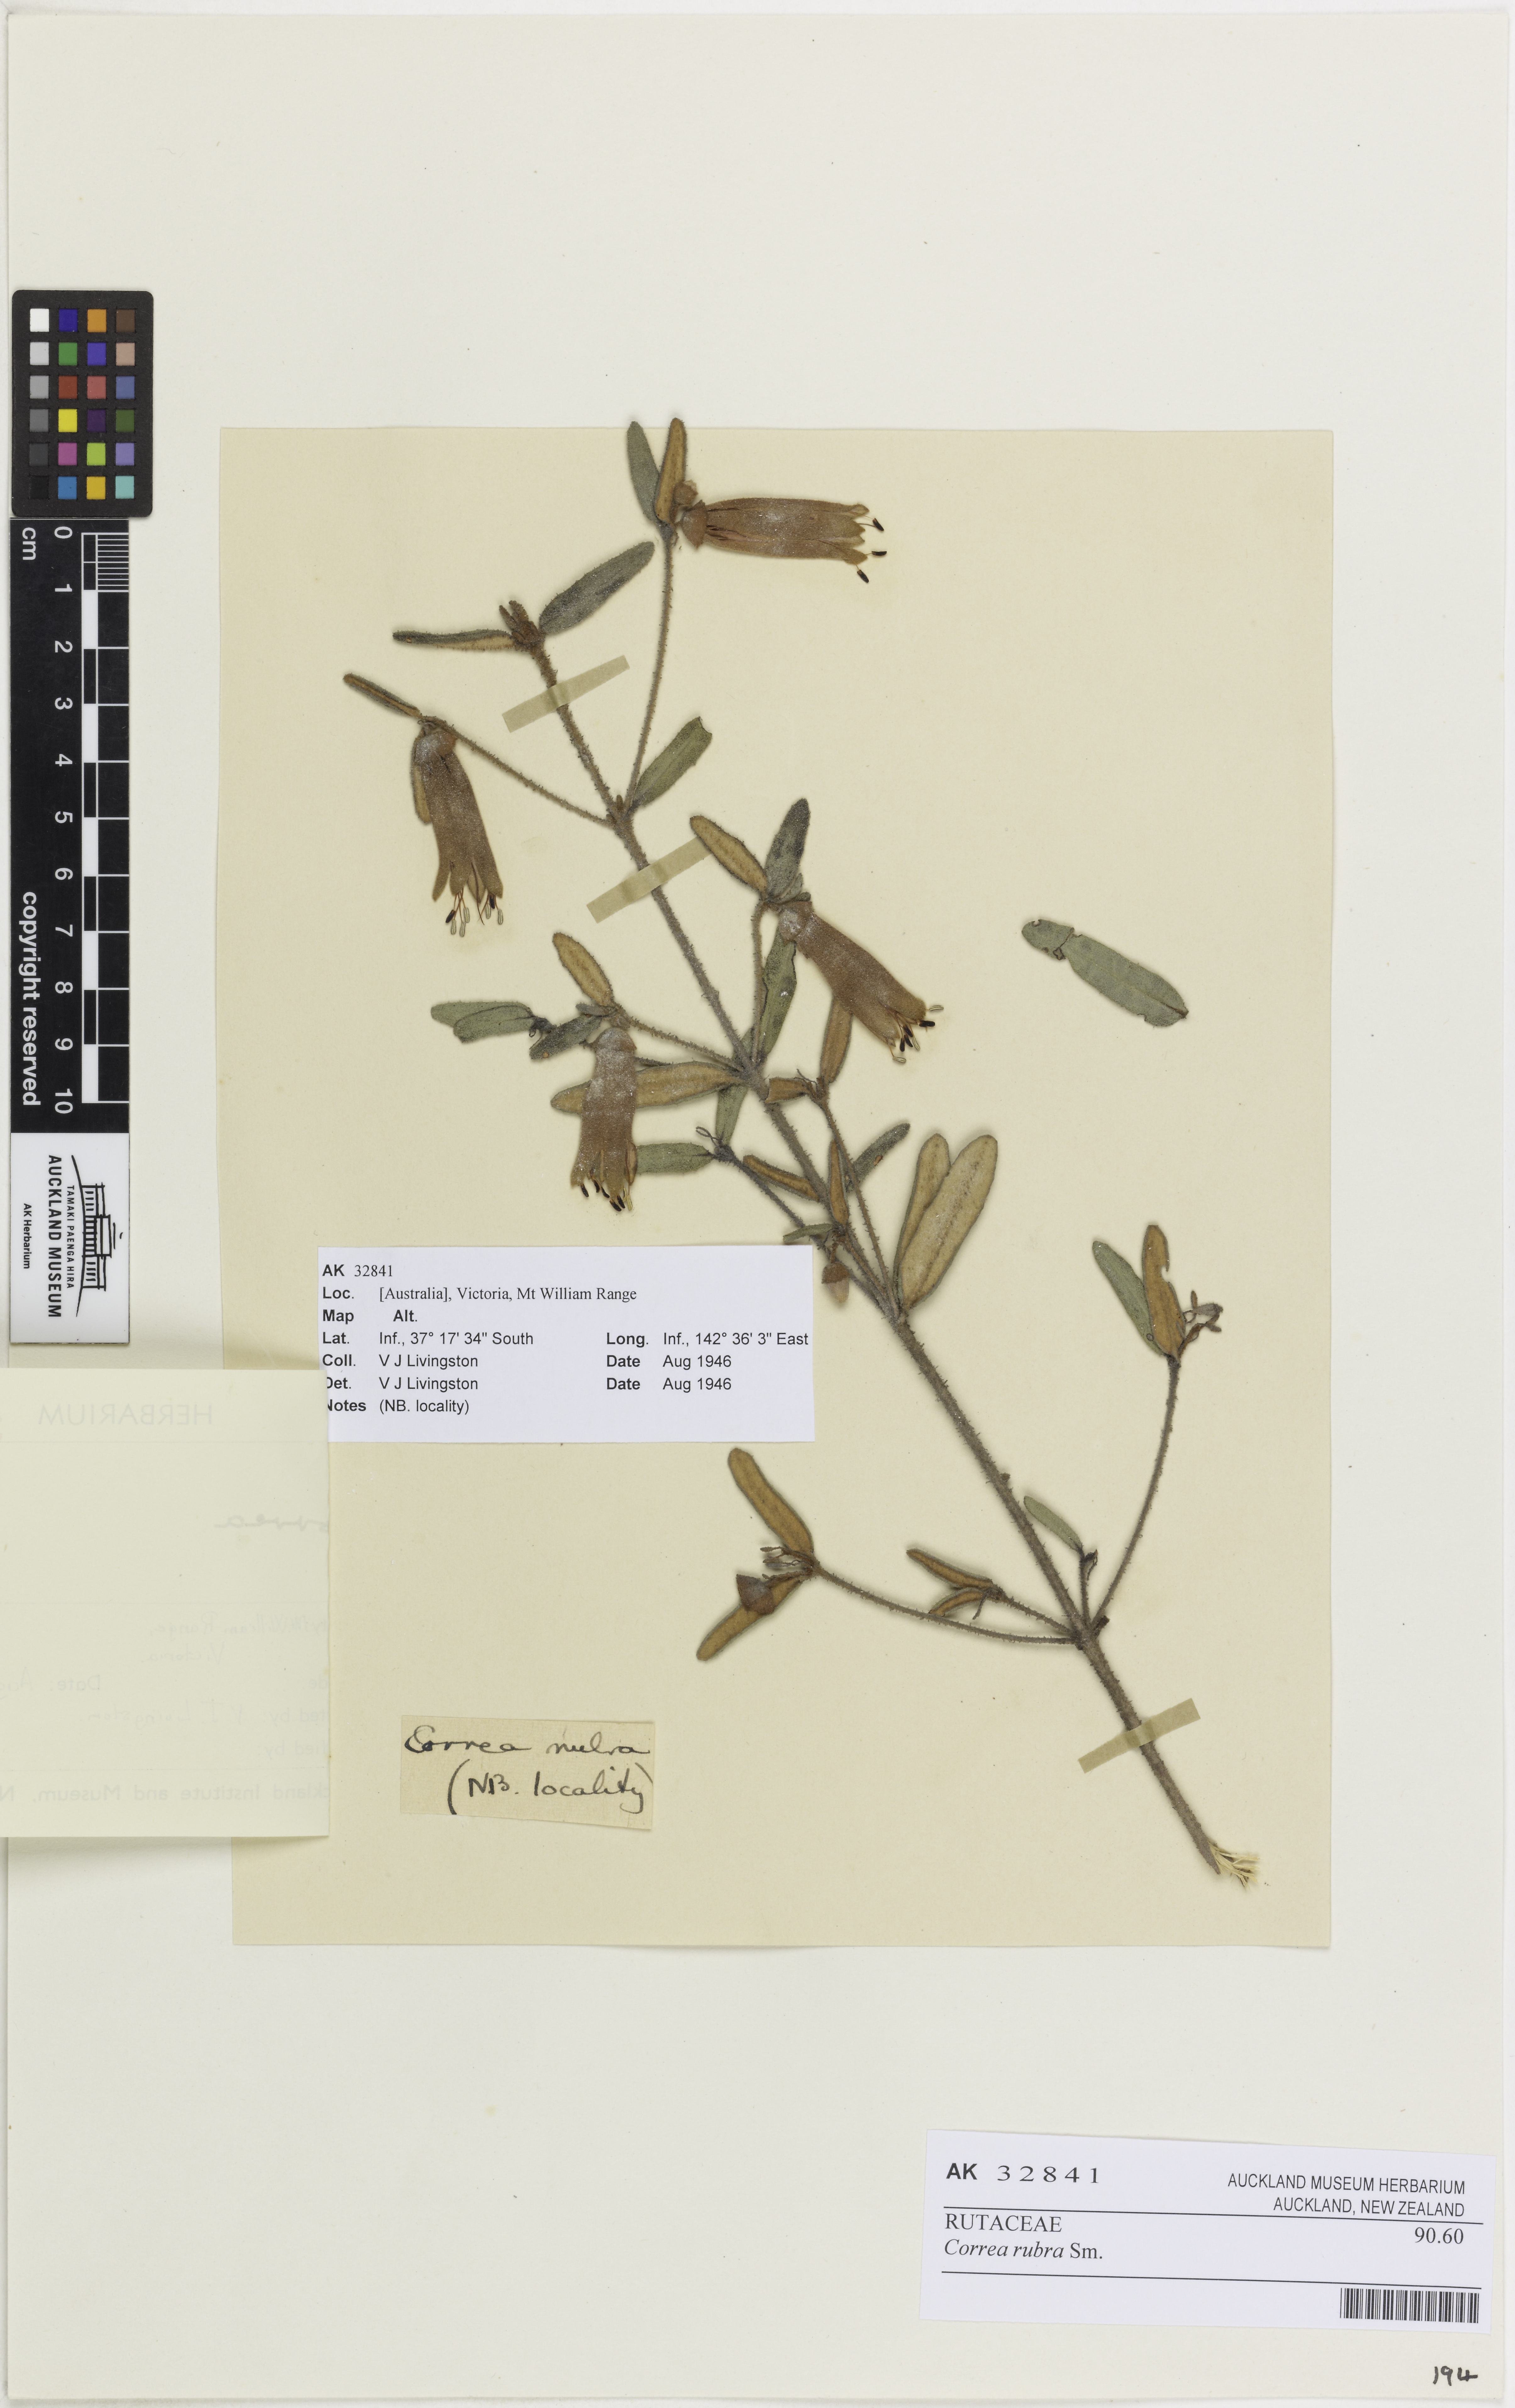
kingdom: Plantae
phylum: Tracheophyta
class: Magnoliopsida
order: Sapindales
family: Rutaceae
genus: Correa
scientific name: Correa rubra
